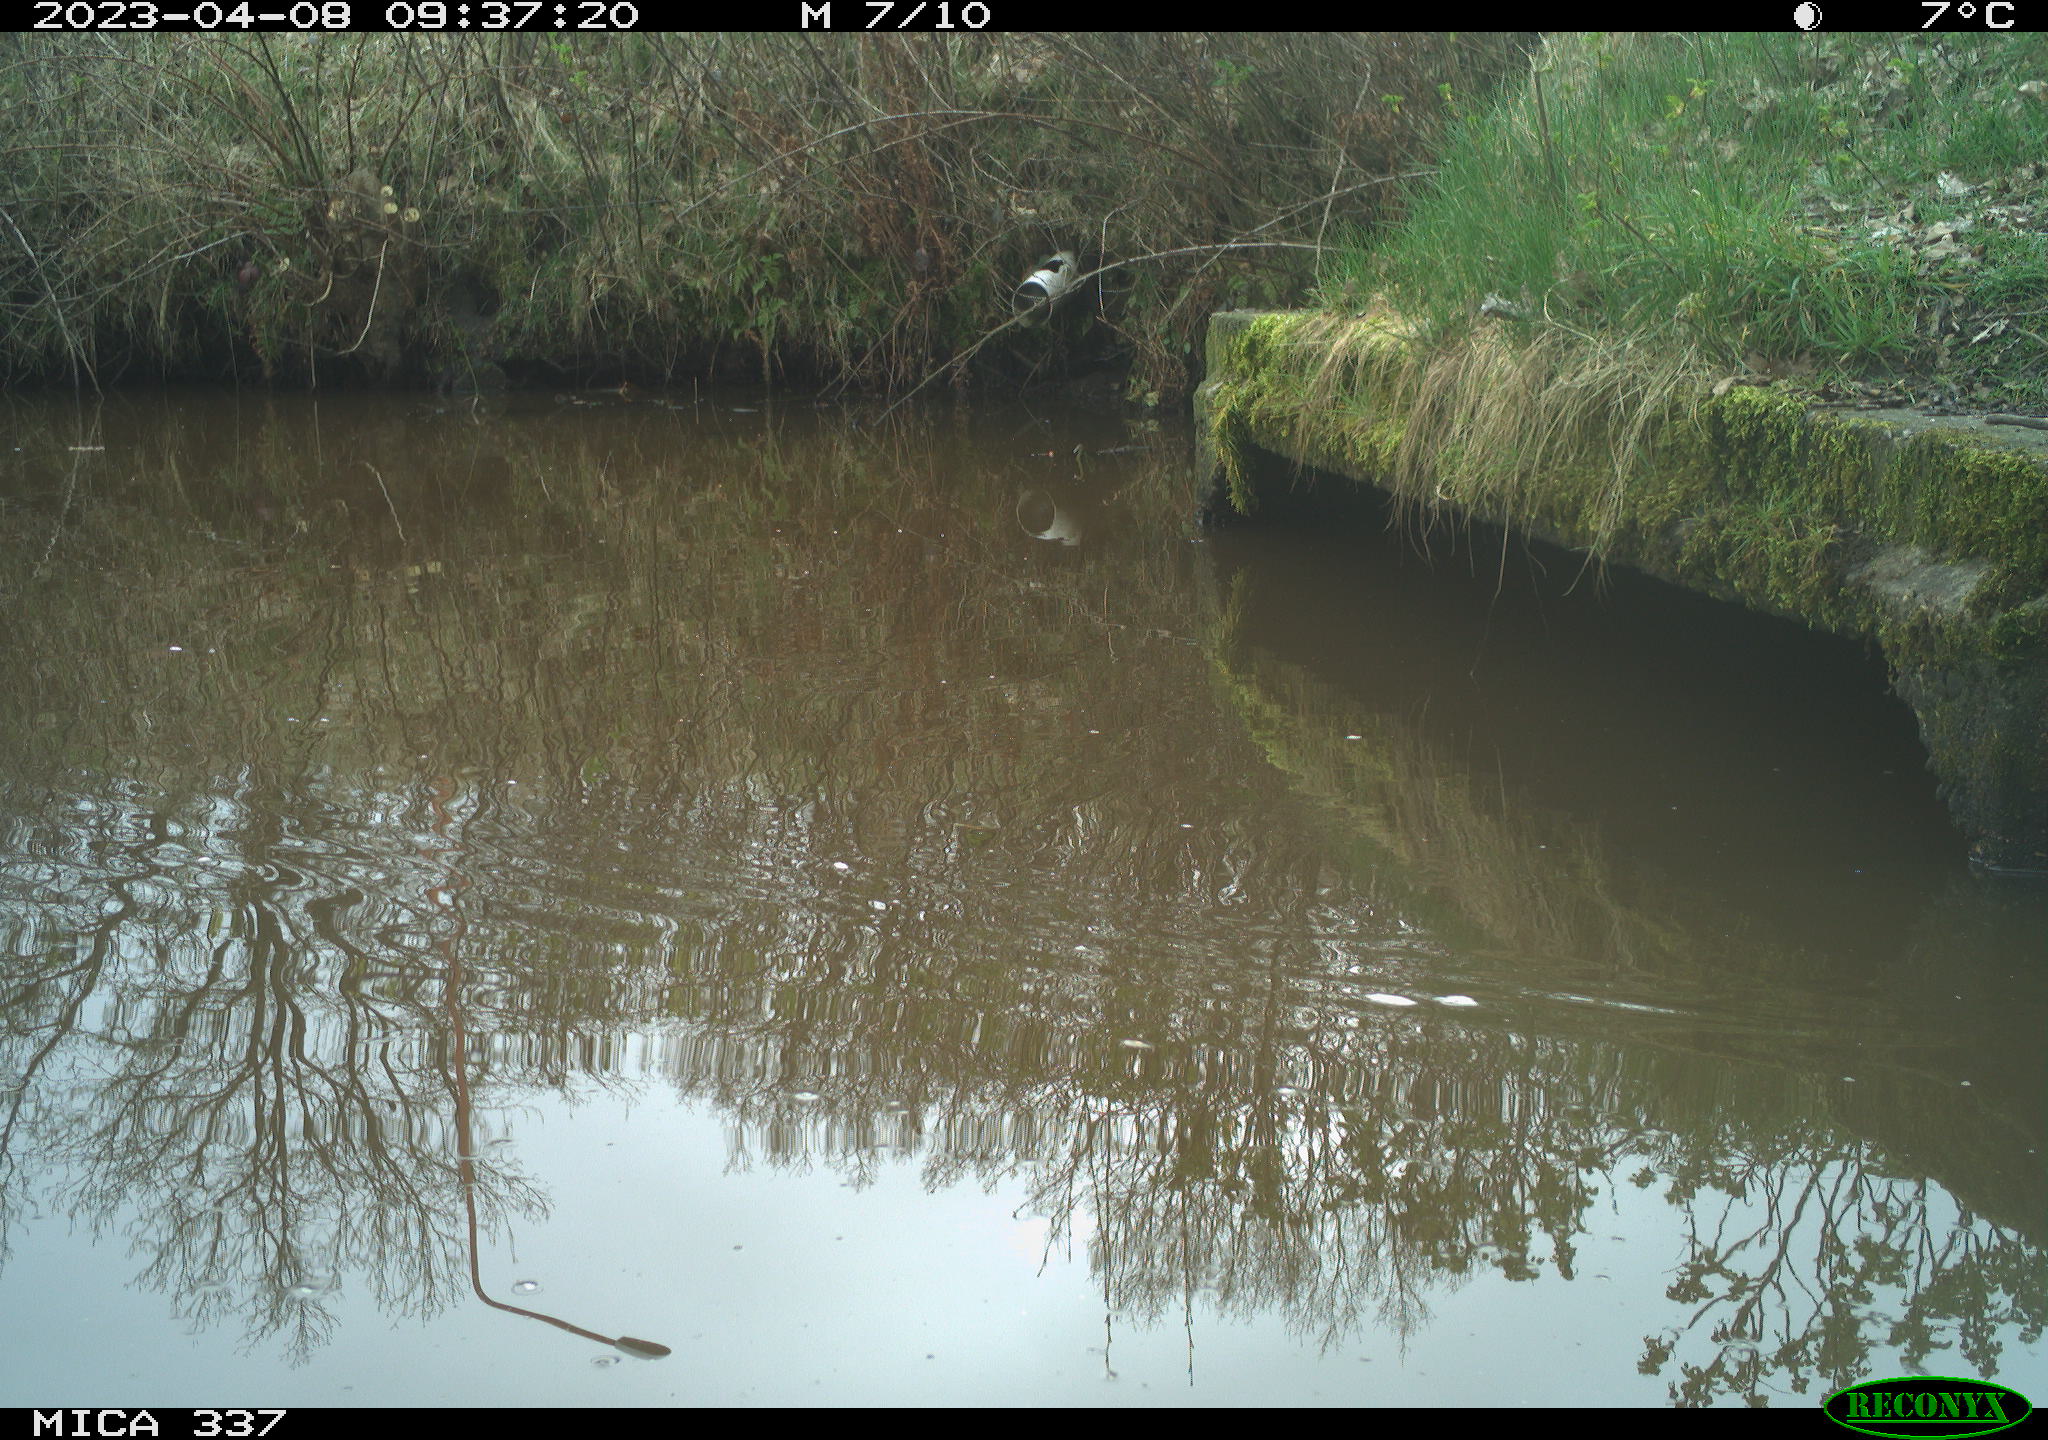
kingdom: Animalia
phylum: Chordata
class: Aves
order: Gruiformes
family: Rallidae
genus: Gallinula
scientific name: Gallinula chloropus
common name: Common moorhen
